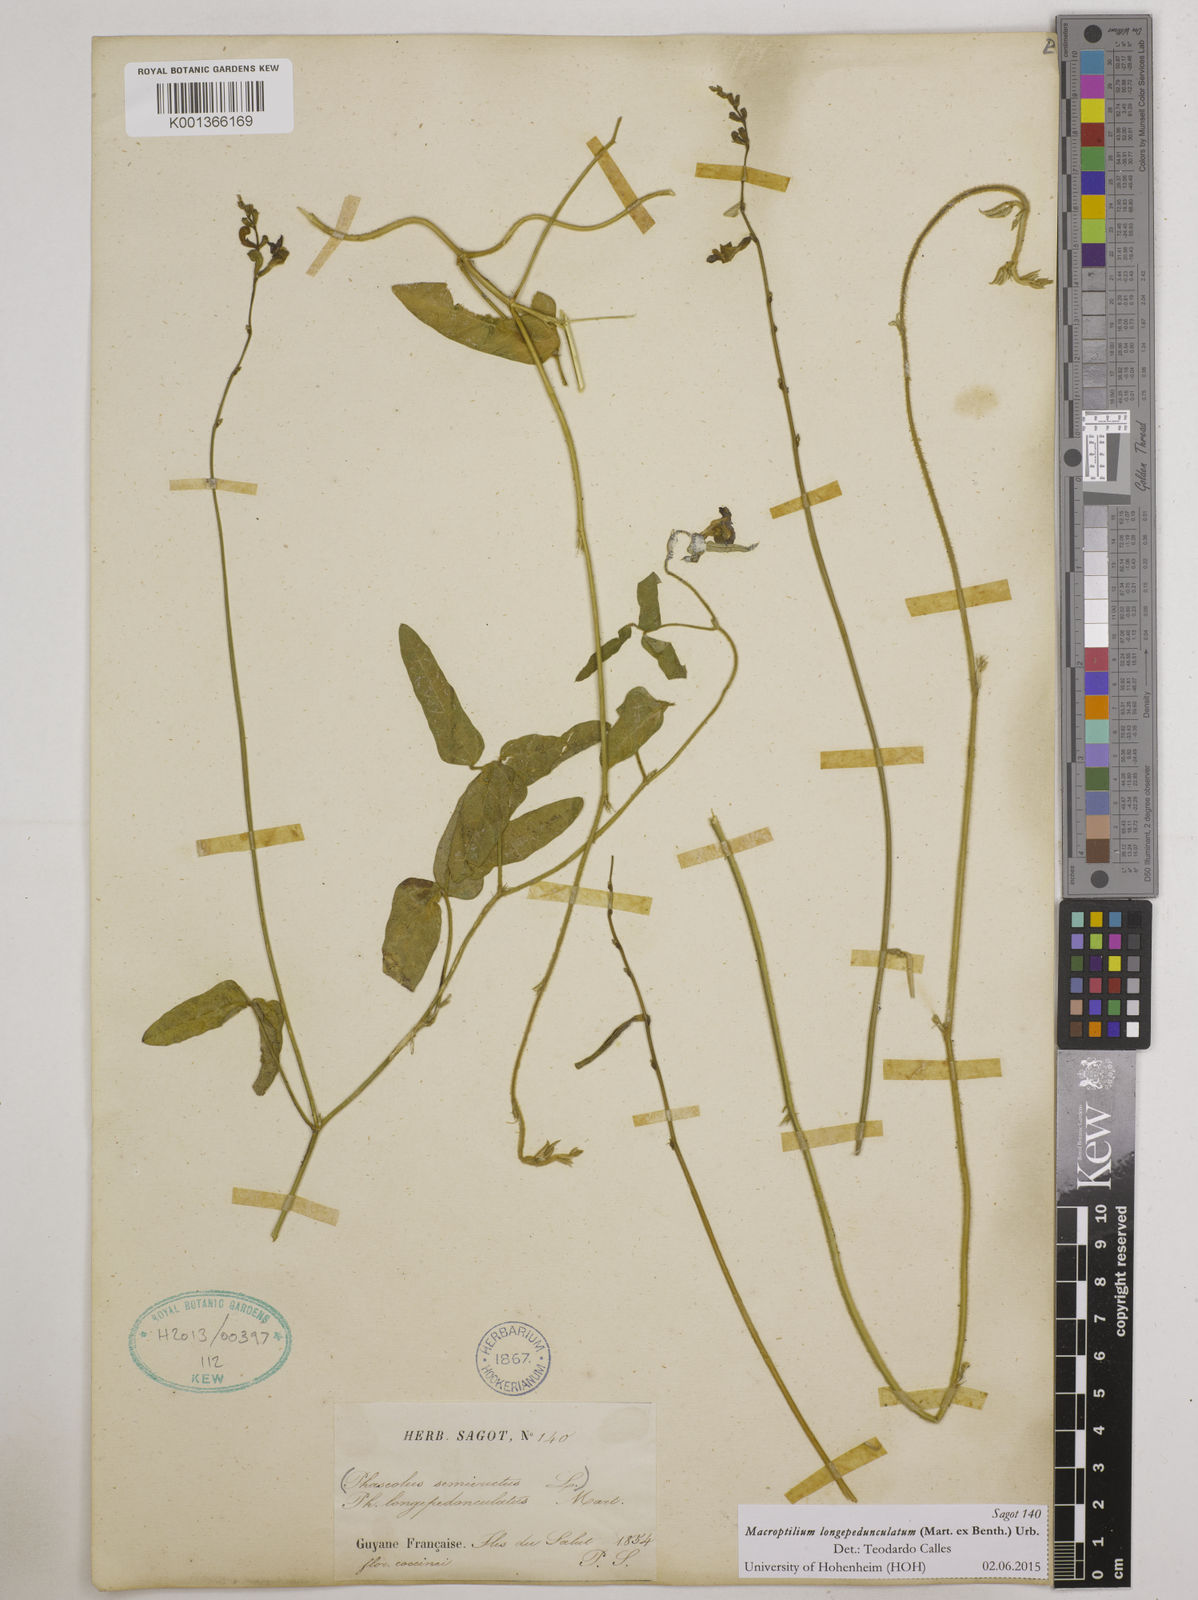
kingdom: Plantae
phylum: Tracheophyta
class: Magnoliopsida
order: Fabales
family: Fabaceae
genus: Macroptilium
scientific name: Macroptilium longepedunculatum
